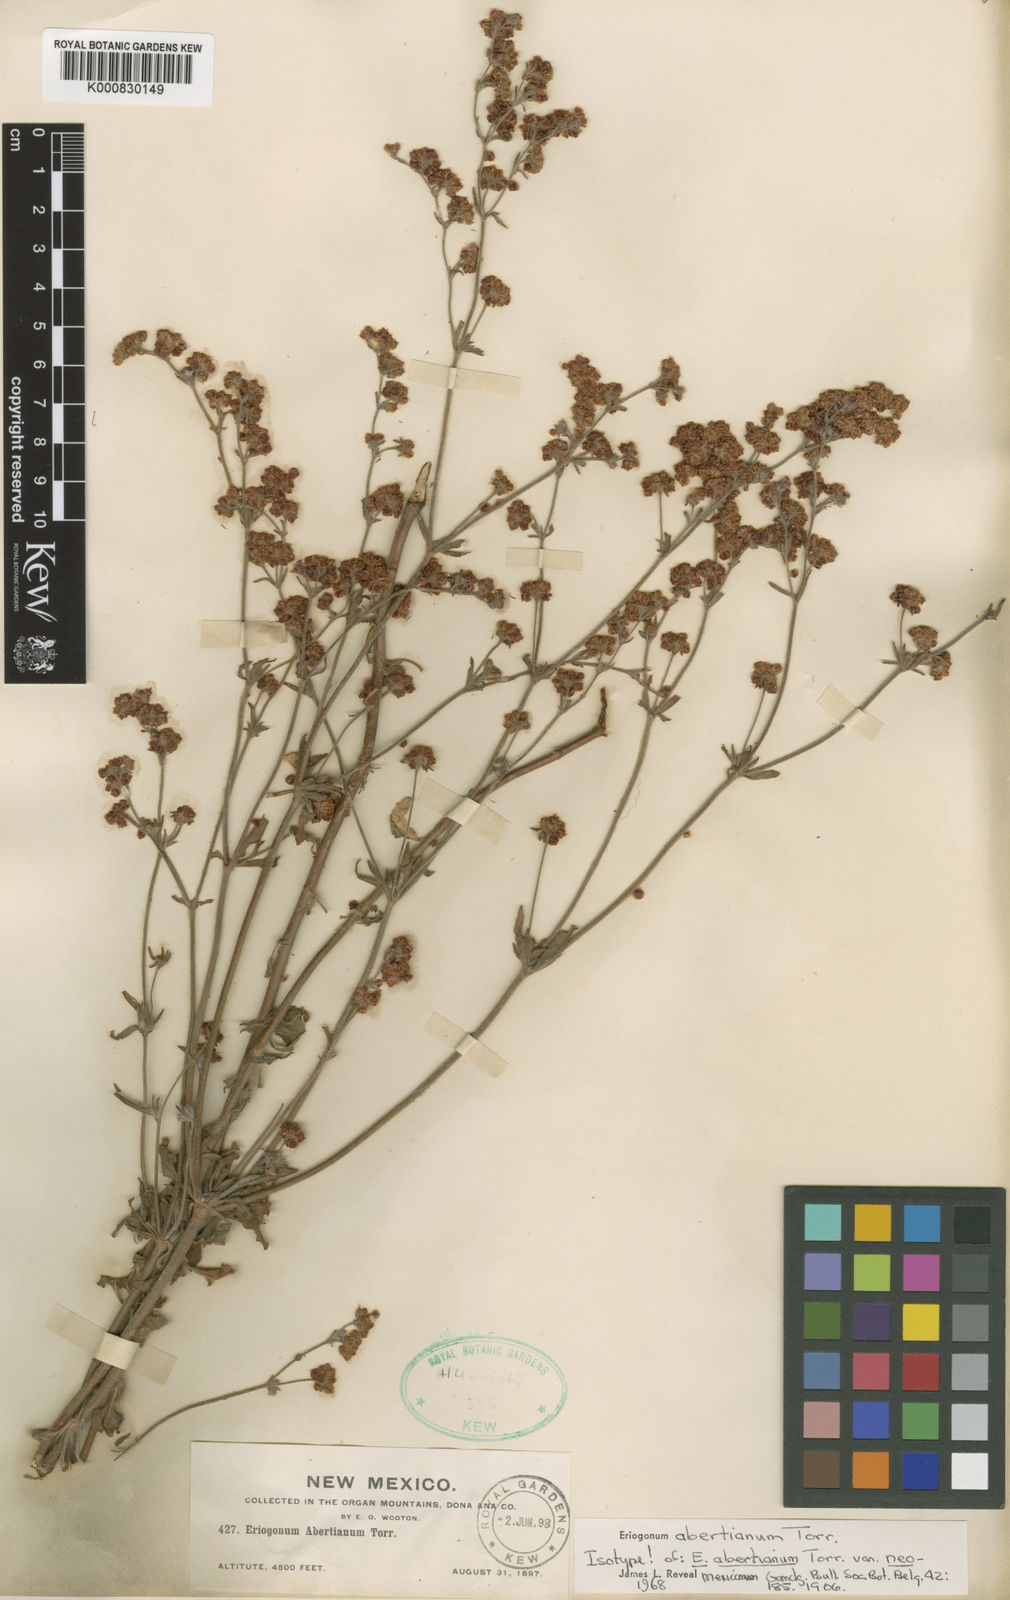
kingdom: Plantae
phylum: Tracheophyta
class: Magnoliopsida
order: Caryophyllales
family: Polygonaceae
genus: Eriogonum
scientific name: Eriogonum abertianum
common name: Abert's wild buckwheat
